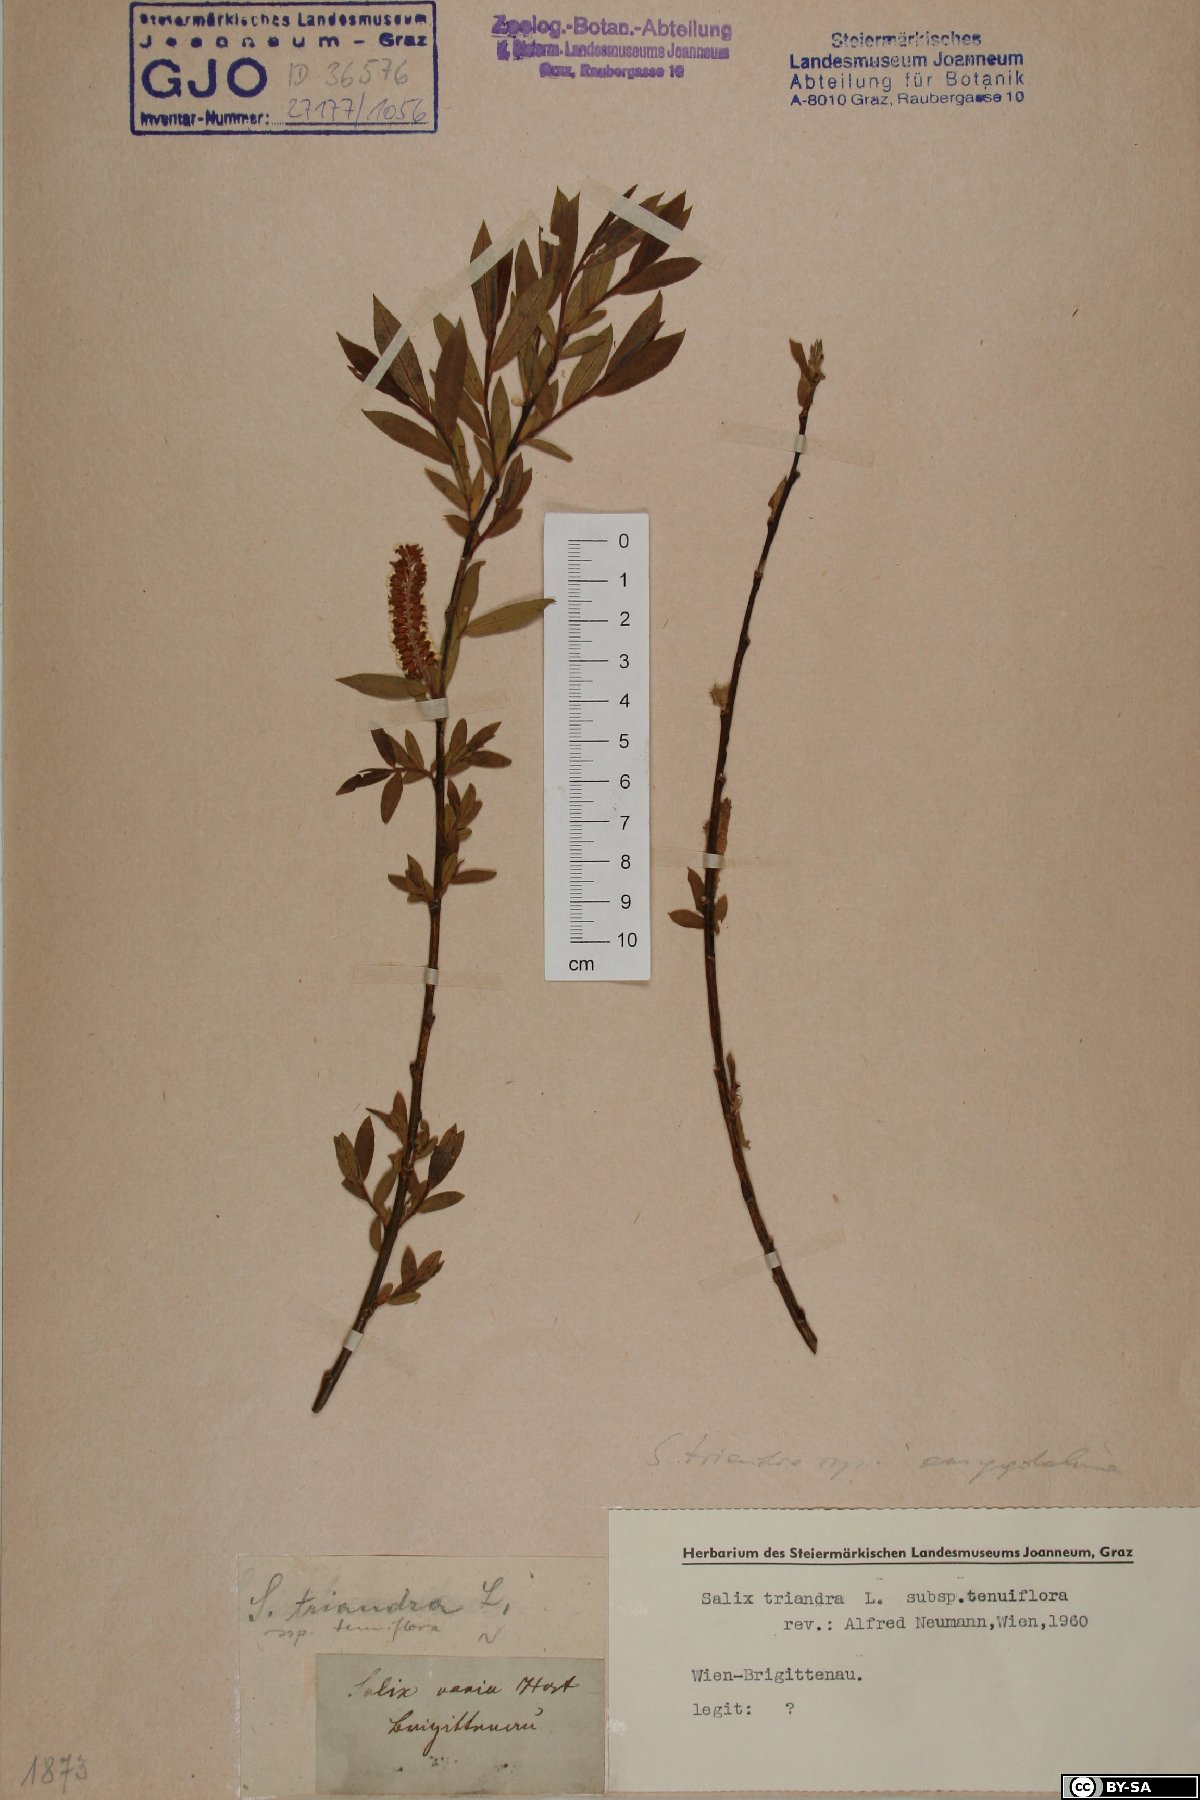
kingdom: Plantae
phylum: Tracheophyta
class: Magnoliopsida
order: Malpighiales
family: Salicaceae
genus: Salix
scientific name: Salix triandra
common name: Almond willow
